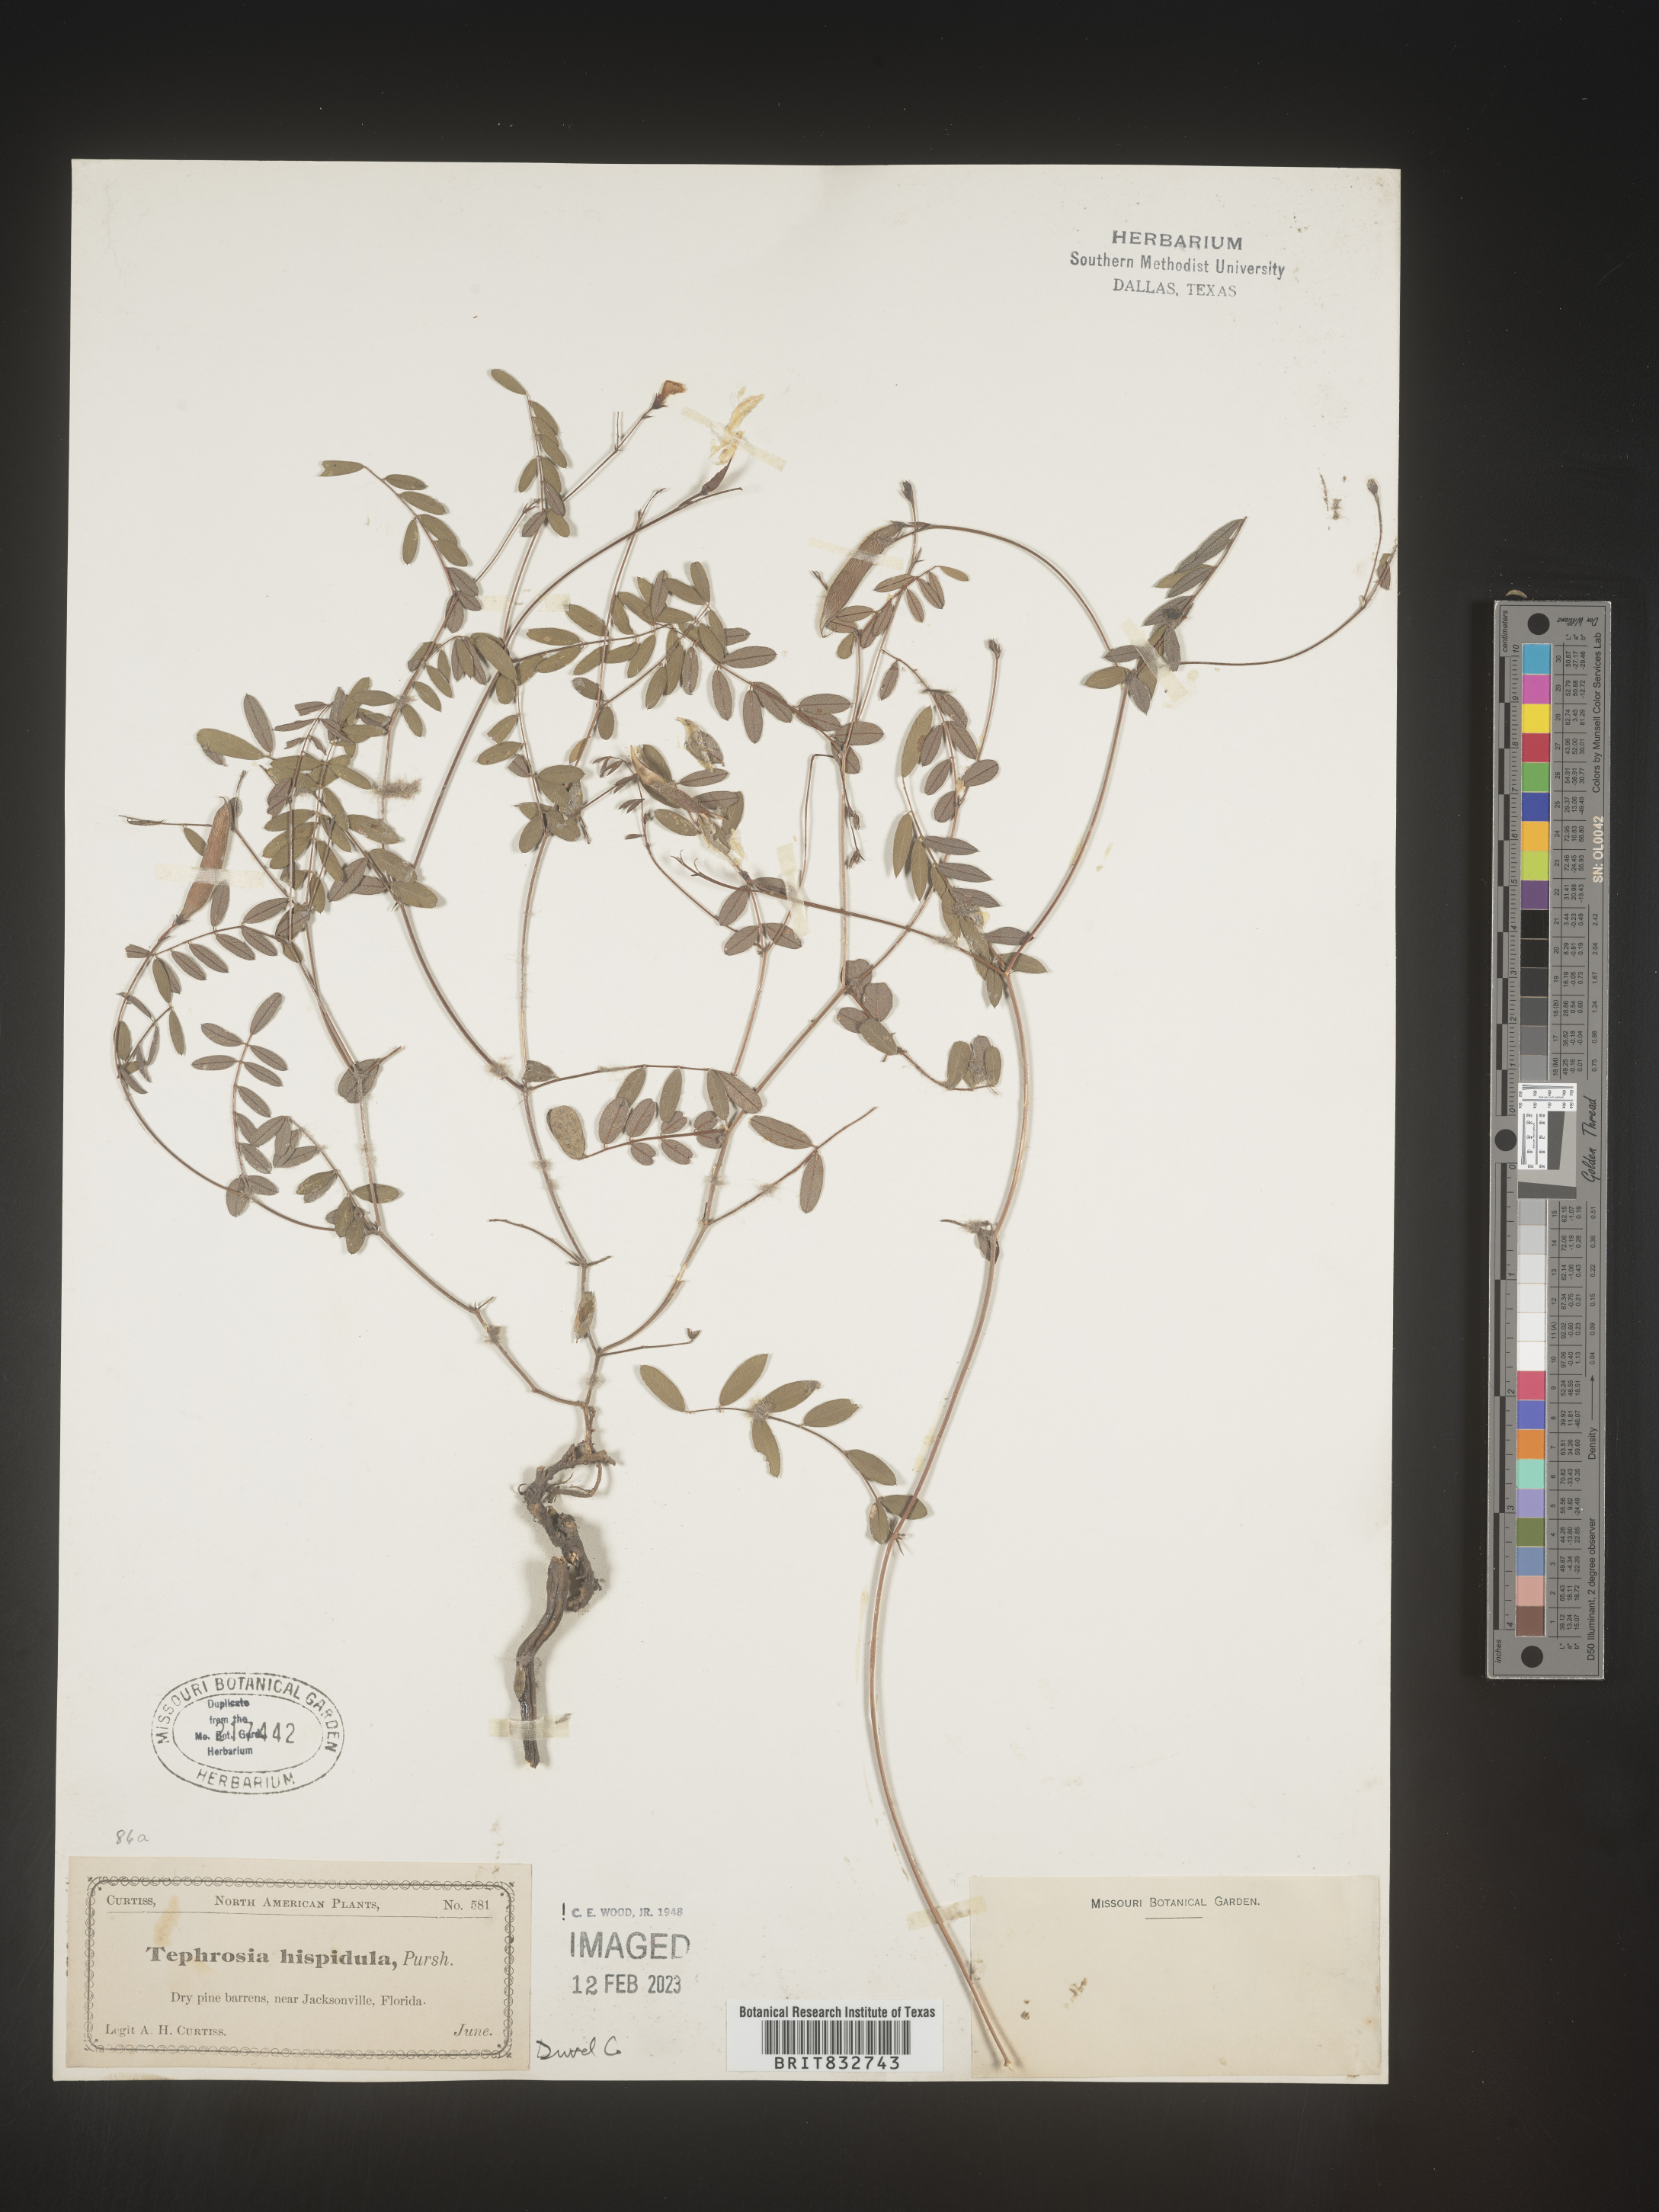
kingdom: Plantae
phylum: Tracheophyta
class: Magnoliopsida
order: Fabales
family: Fabaceae
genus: Tephrosia
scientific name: Tephrosia hispidula
